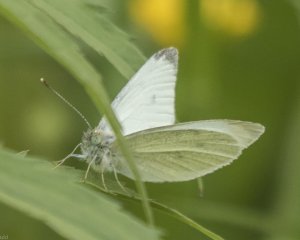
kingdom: Animalia
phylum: Arthropoda
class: Insecta
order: Lepidoptera
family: Pieridae
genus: Pieris
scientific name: Pieris rapae
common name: Cabbage White
